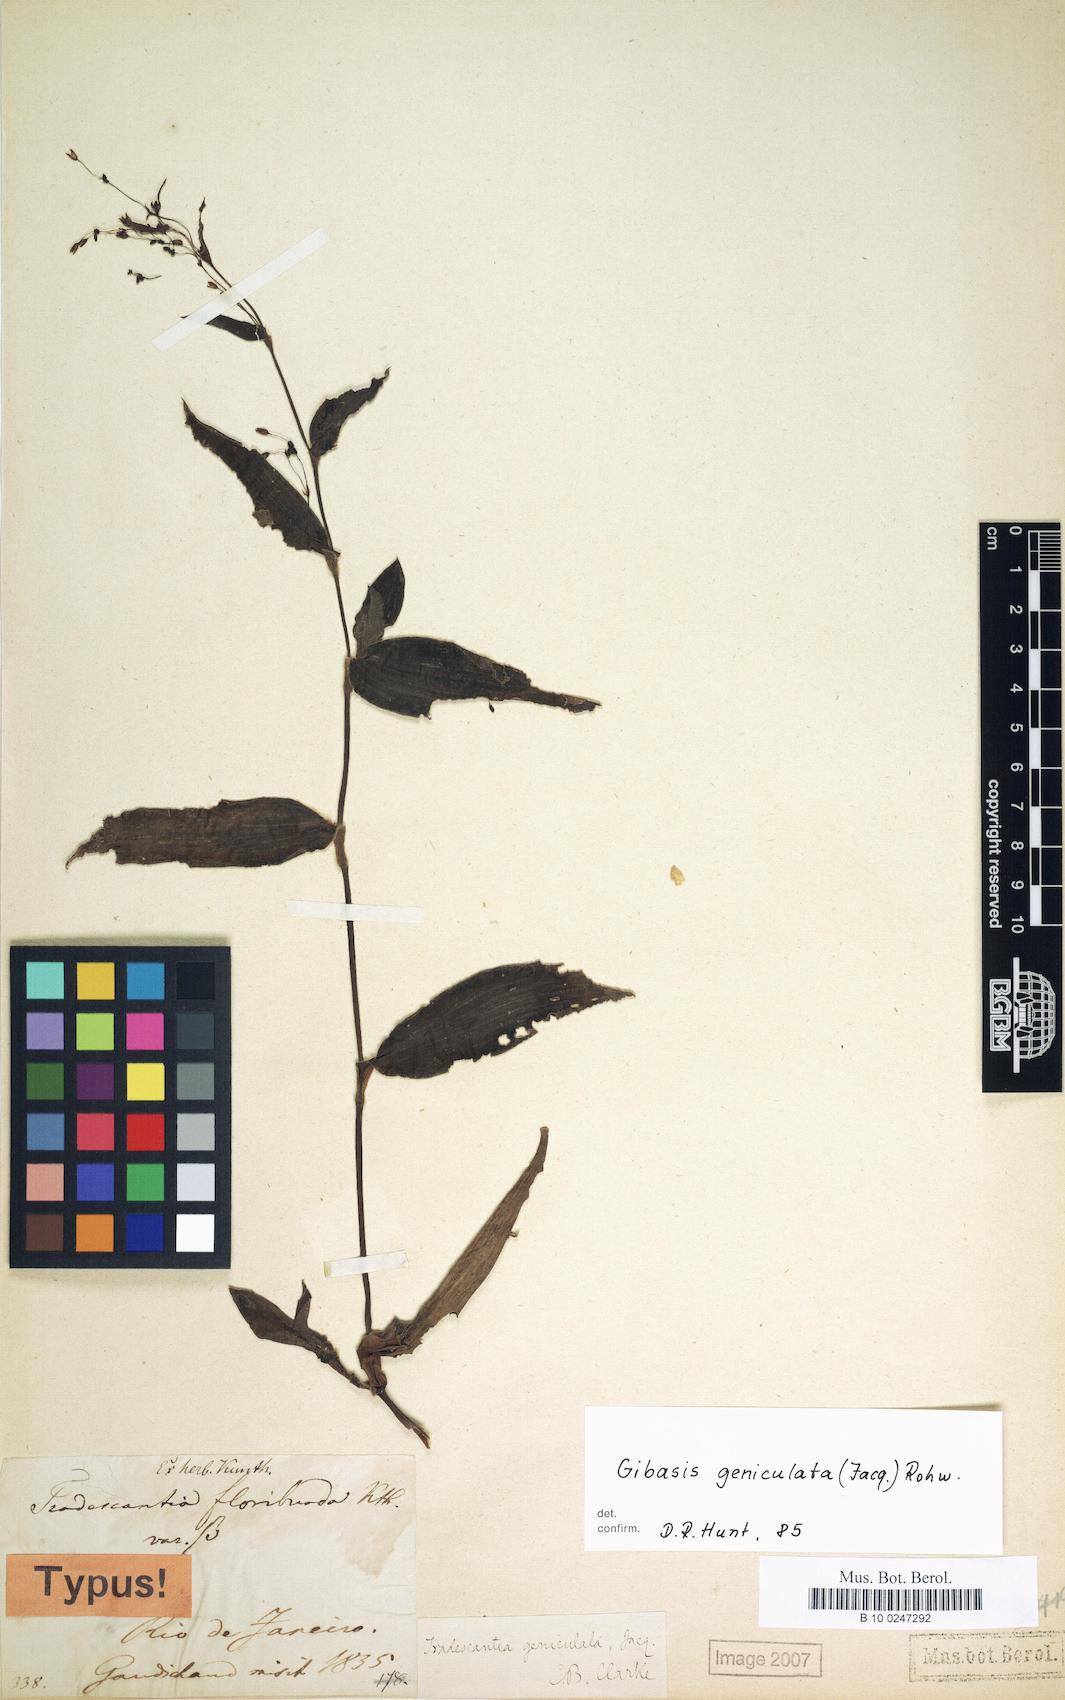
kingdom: Plantae
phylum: Tracheophyta
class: Liliopsida
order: Commelinales
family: Commelinaceae
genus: Gibasis
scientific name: Gibasis geniculata
